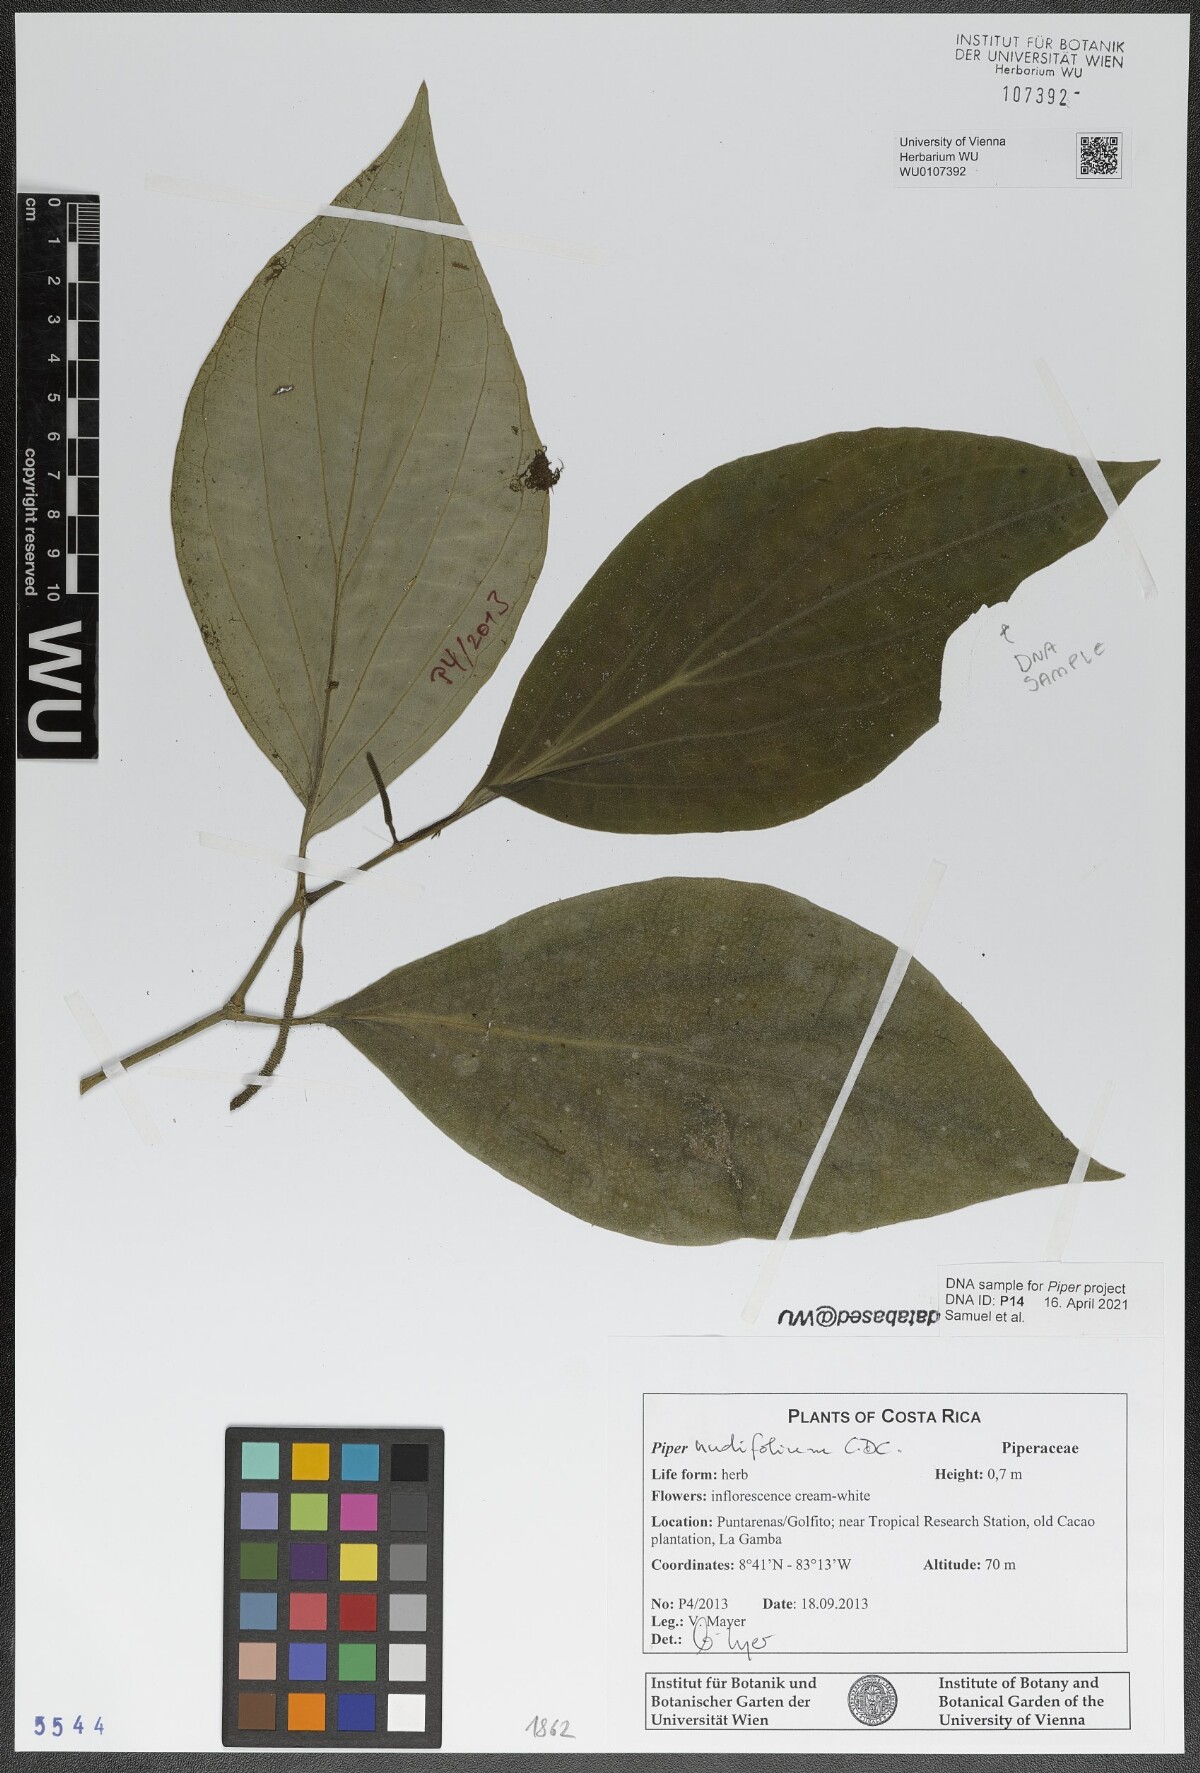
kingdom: Plantae
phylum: Tracheophyta
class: Magnoliopsida
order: Piperales
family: Piperaceae
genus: Piper
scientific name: Piper nudifolium
